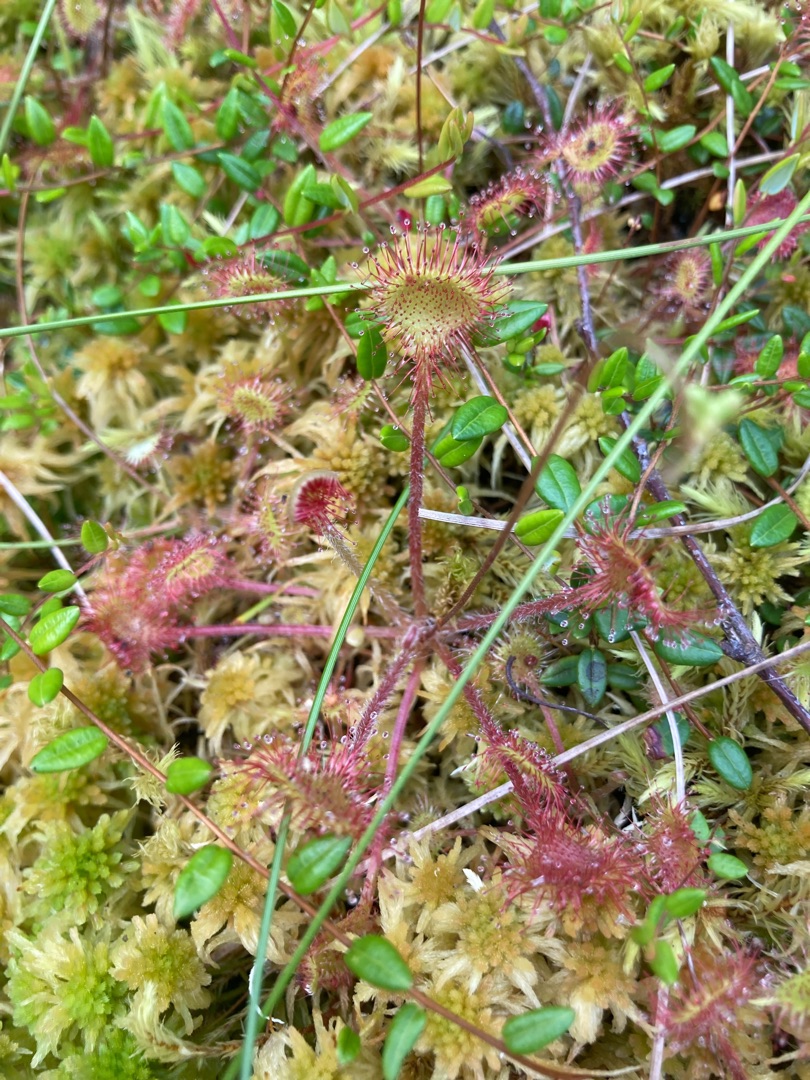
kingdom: Plantae
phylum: Tracheophyta
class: Magnoliopsida
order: Caryophyllales
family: Droseraceae
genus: Drosera
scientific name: Drosera rotundifolia
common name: Rundbladet soldug
